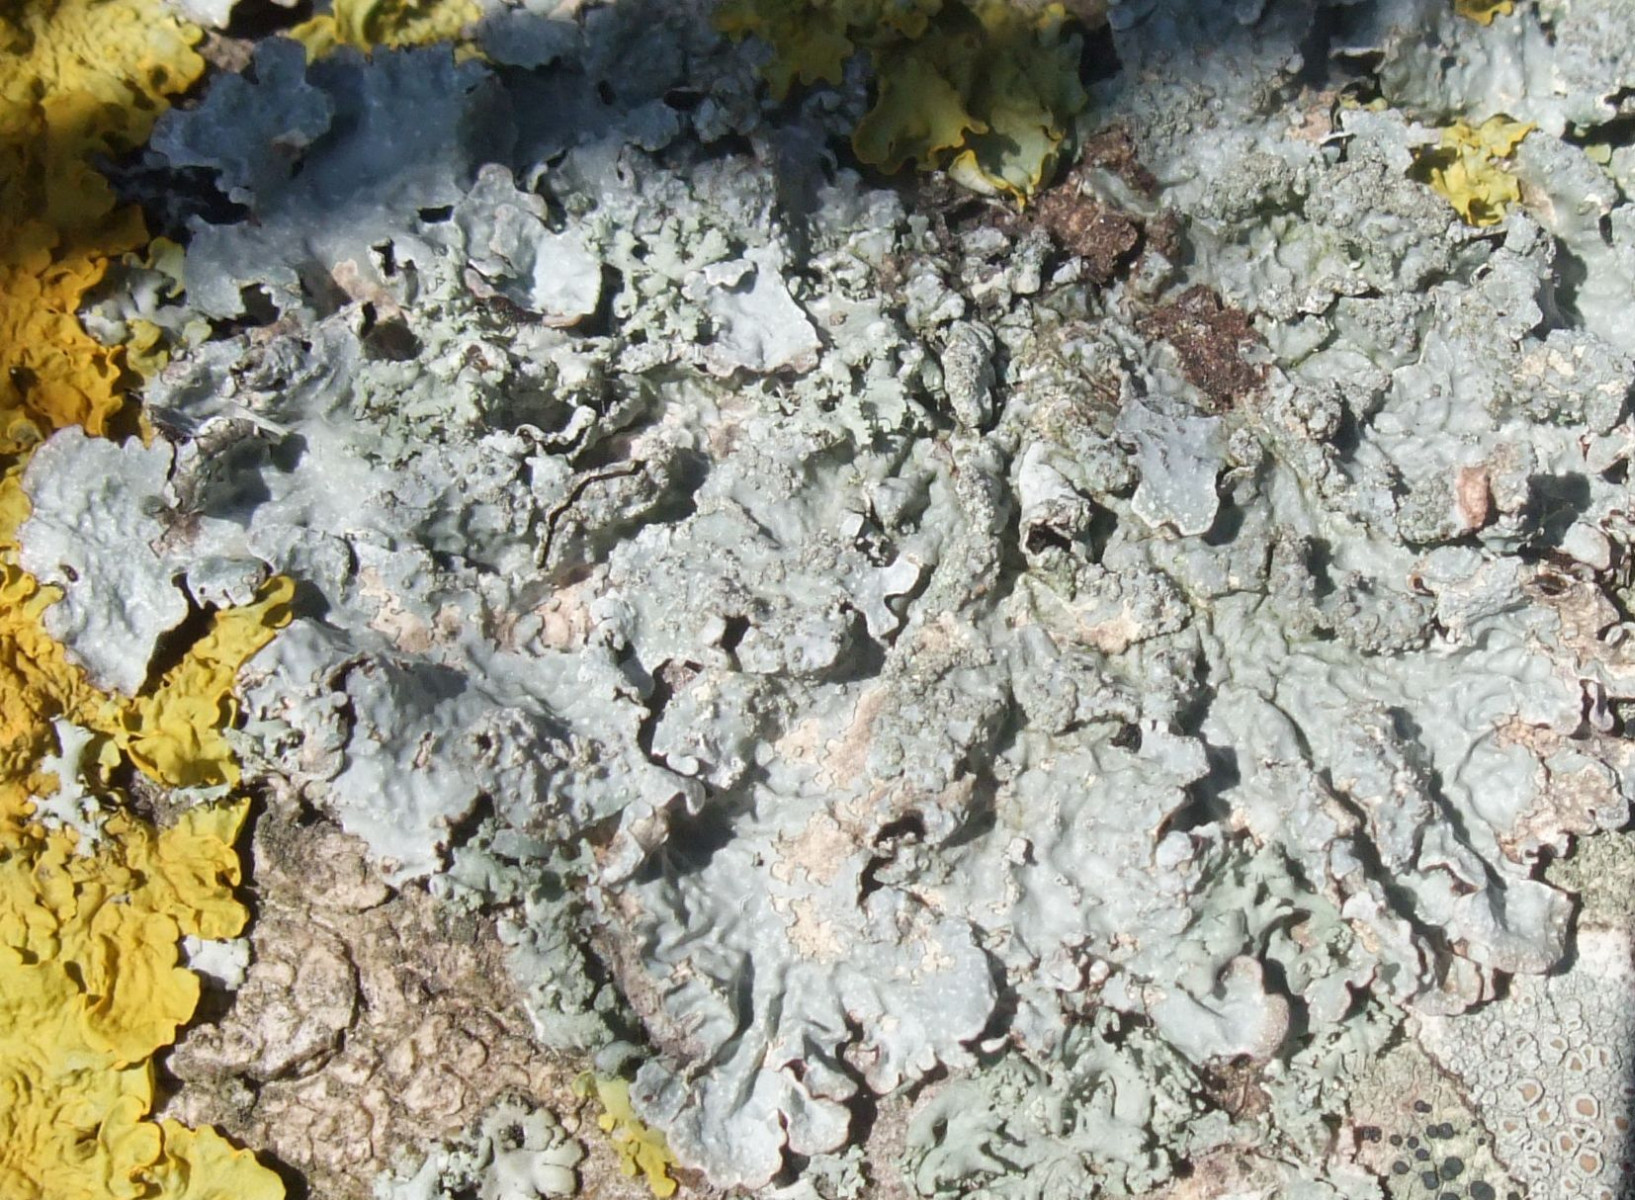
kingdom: Fungi
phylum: Ascomycota
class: Lecanoromycetes
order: Lecanorales
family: Parmeliaceae
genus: Parmelia
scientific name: Parmelia sulcata
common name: rynket skållav
